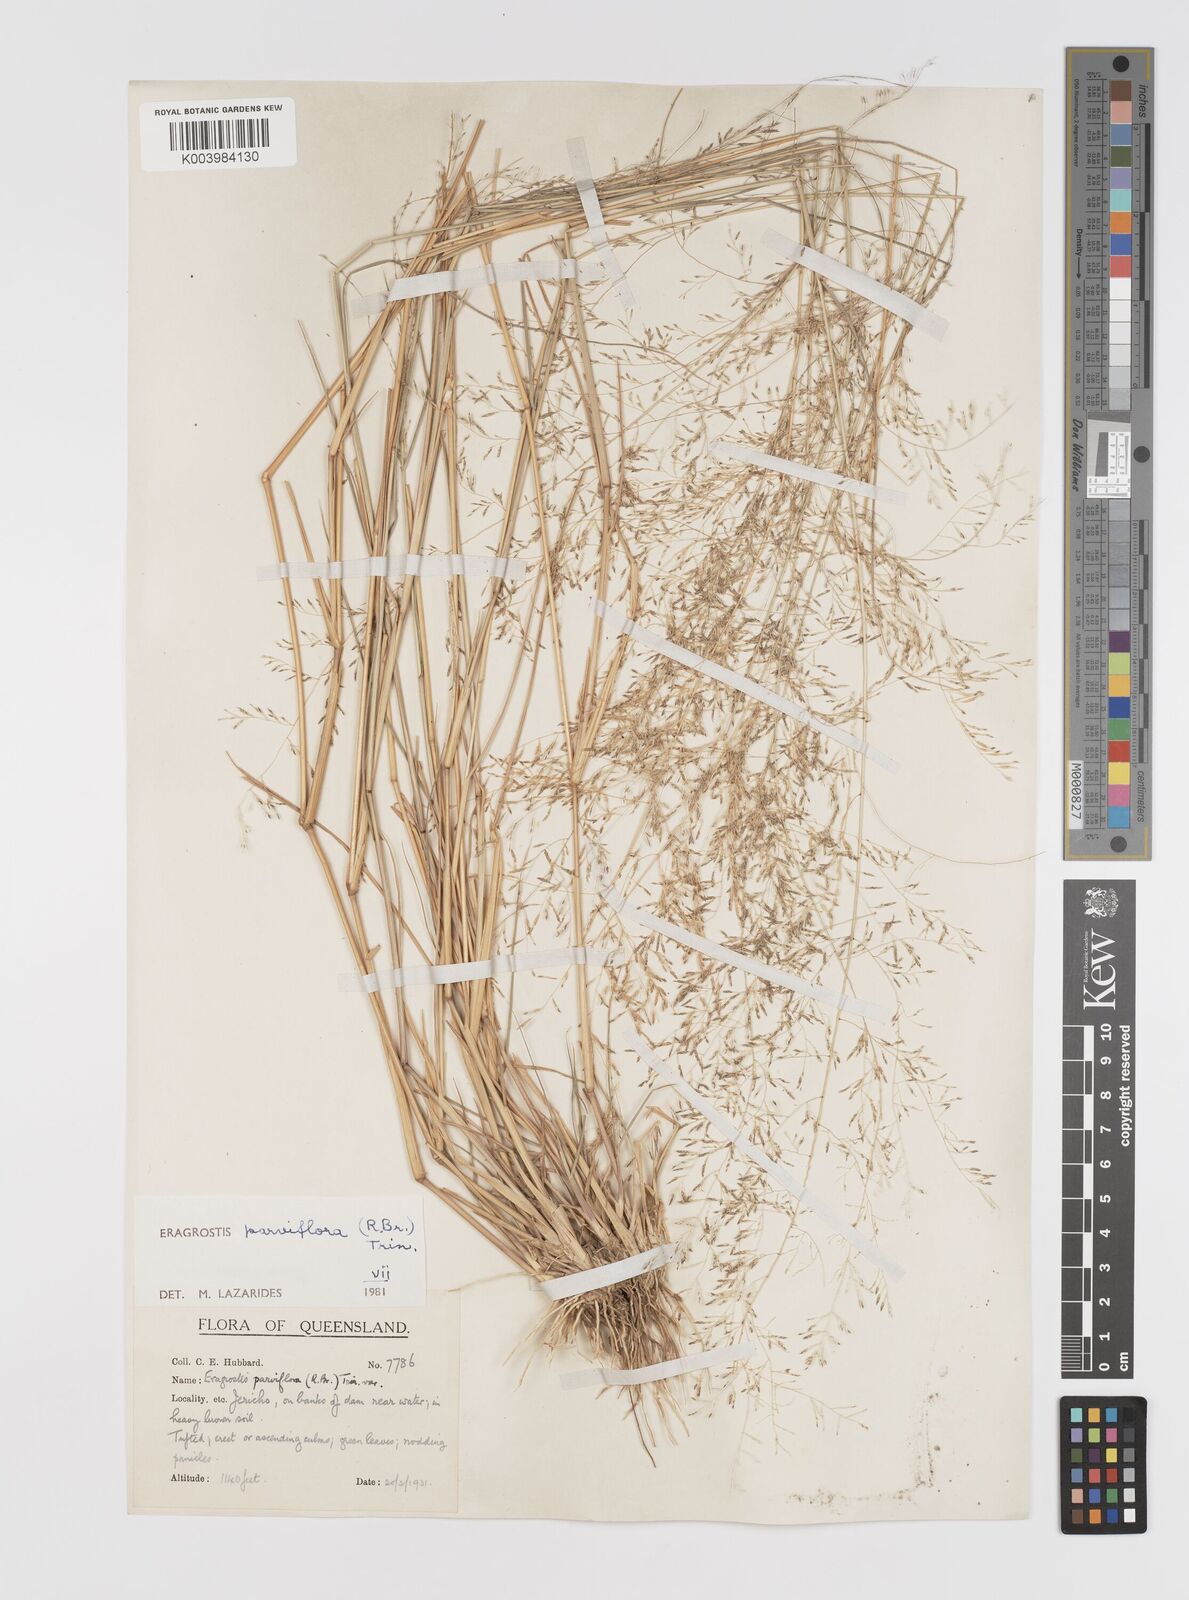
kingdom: Plantae
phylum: Tracheophyta
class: Liliopsida
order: Poales
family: Poaceae
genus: Eragrostis
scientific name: Eragrostis parviflora
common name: Weeping love-grass
